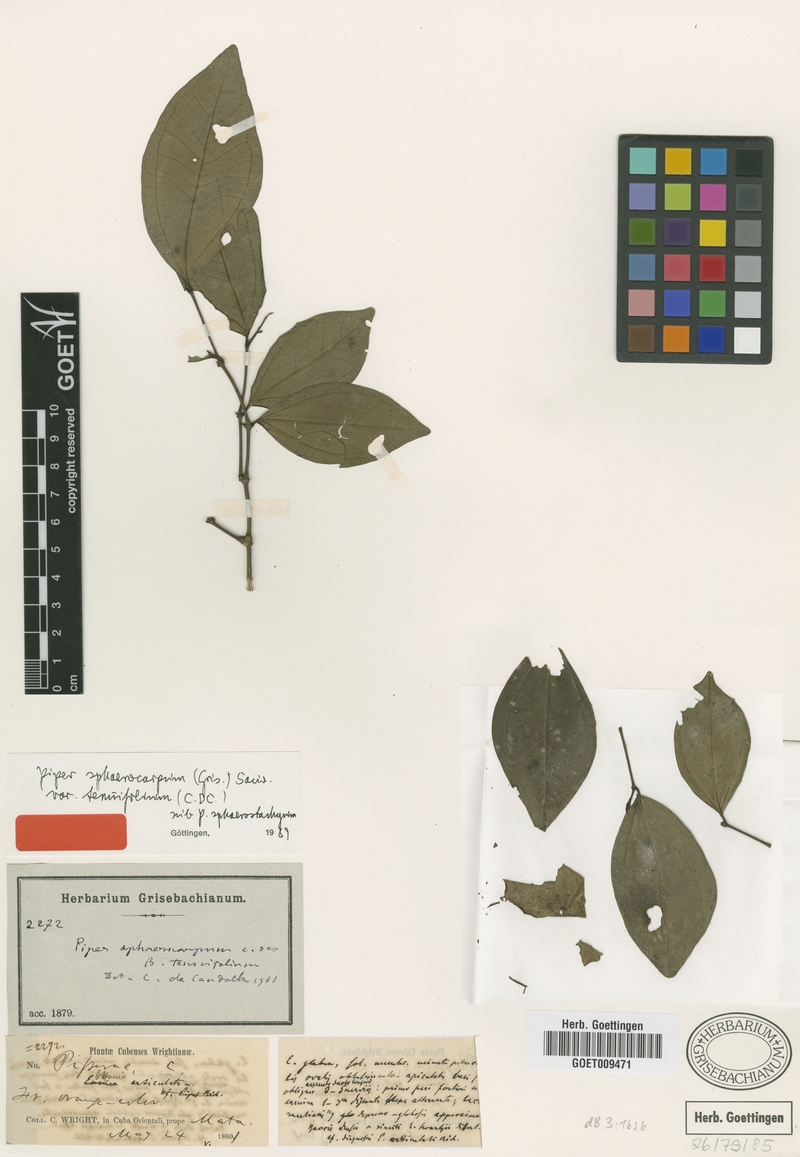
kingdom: Plantae
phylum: Tracheophyta
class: Magnoliopsida
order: Piperales
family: Piperaceae
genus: Piper
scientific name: Piper sphaerocarpum
